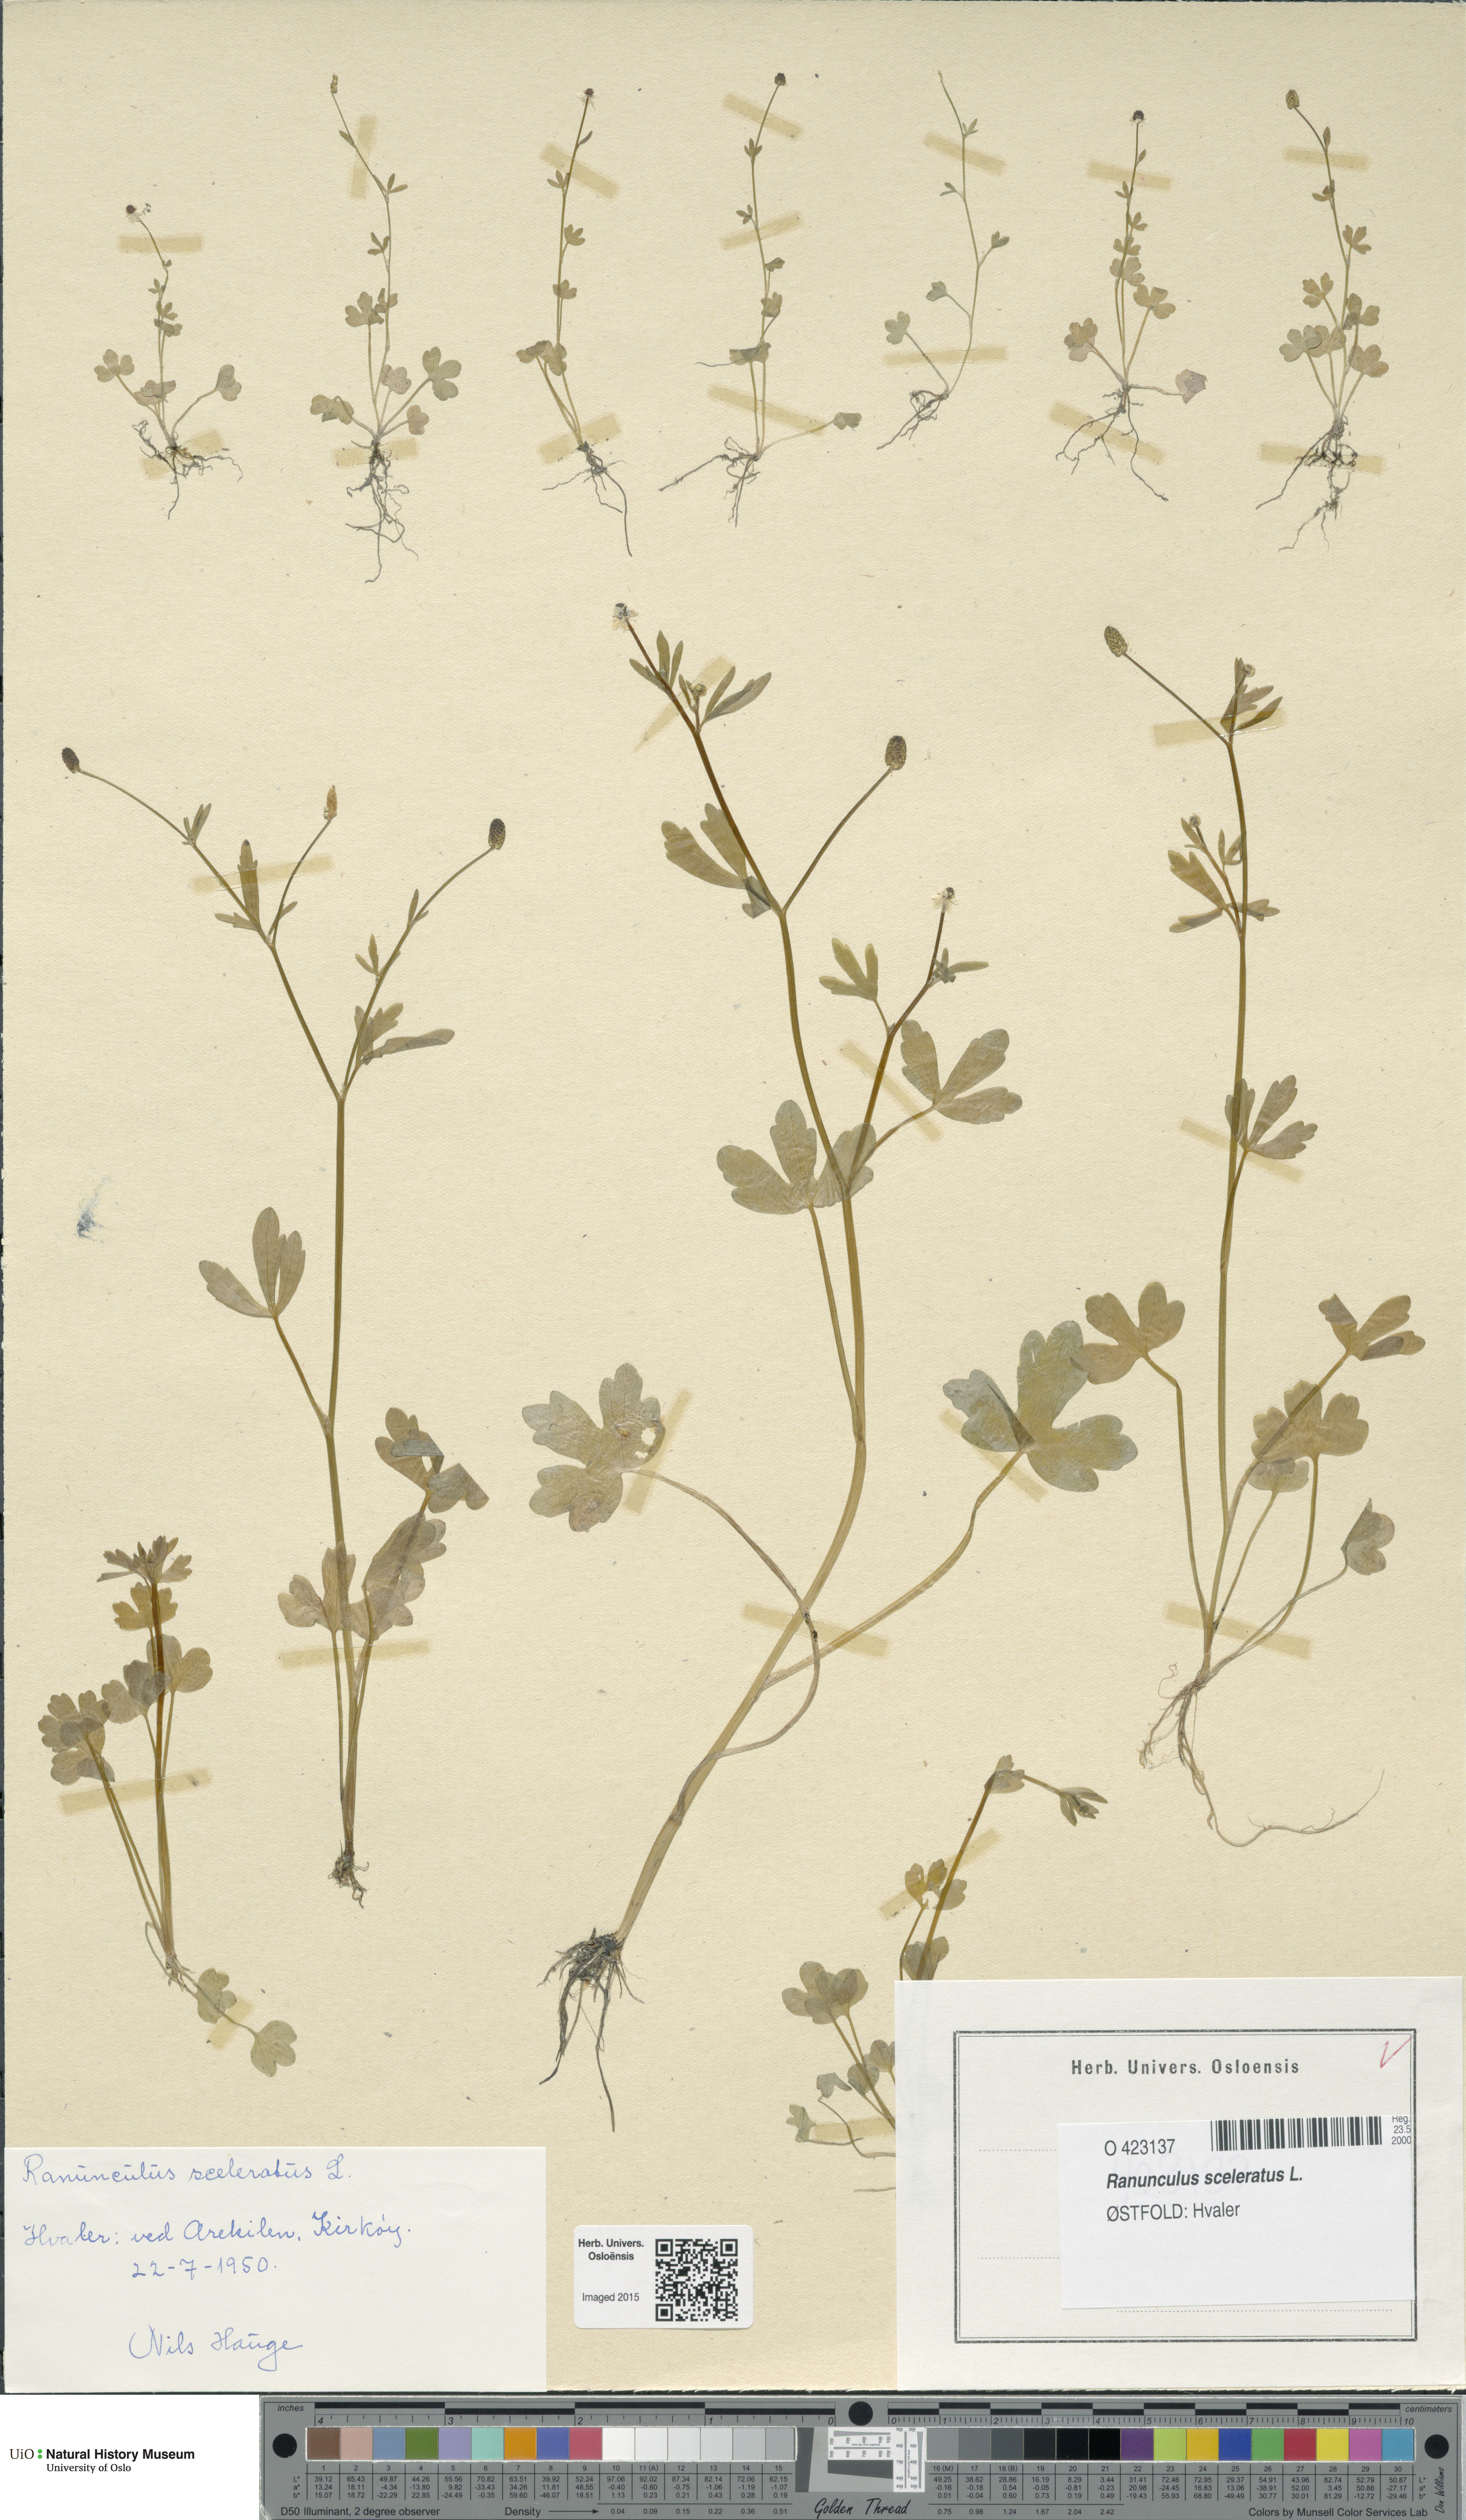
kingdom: Plantae
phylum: Tracheophyta
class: Magnoliopsida
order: Ranunculales
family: Ranunculaceae
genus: Ranunculus
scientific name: Ranunculus sceleratus
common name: Celery-leaved buttercup
